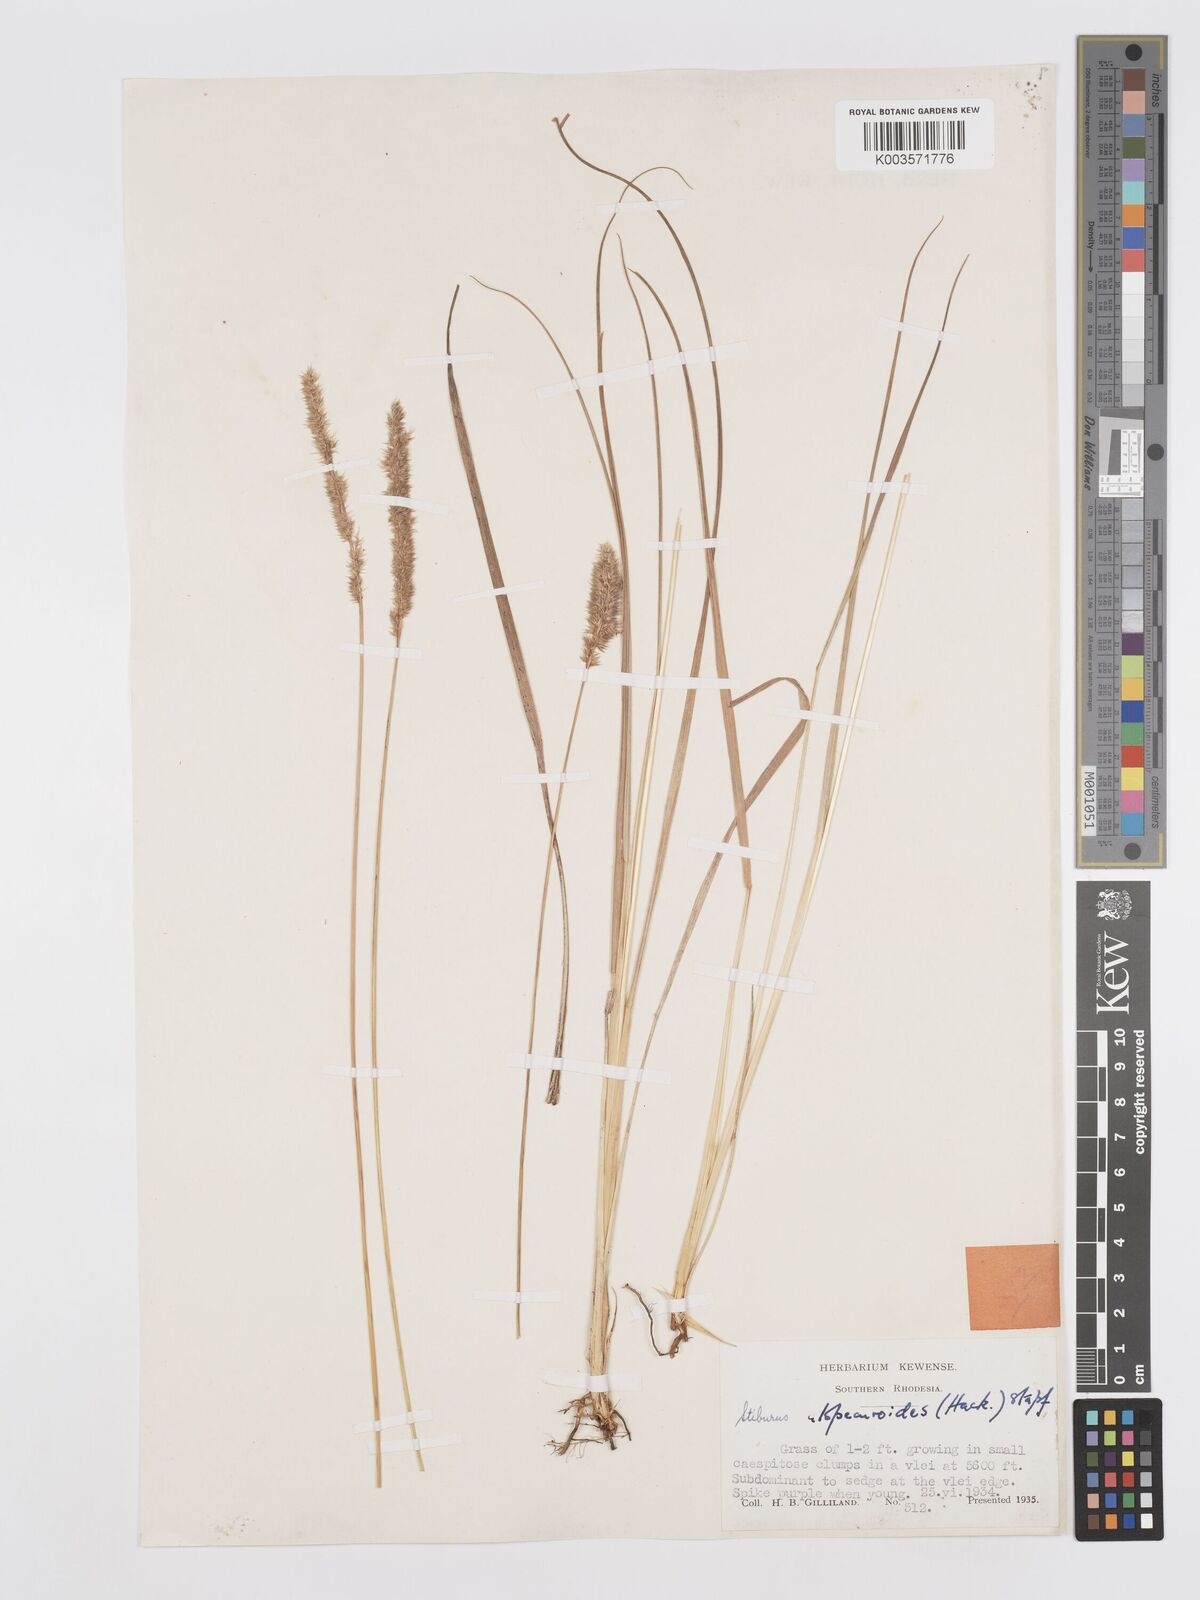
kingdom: Plantae
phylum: Tracheophyta
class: Liliopsida
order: Poales
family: Poaceae
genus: Stiburus
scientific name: Stiburus alopecuroides
